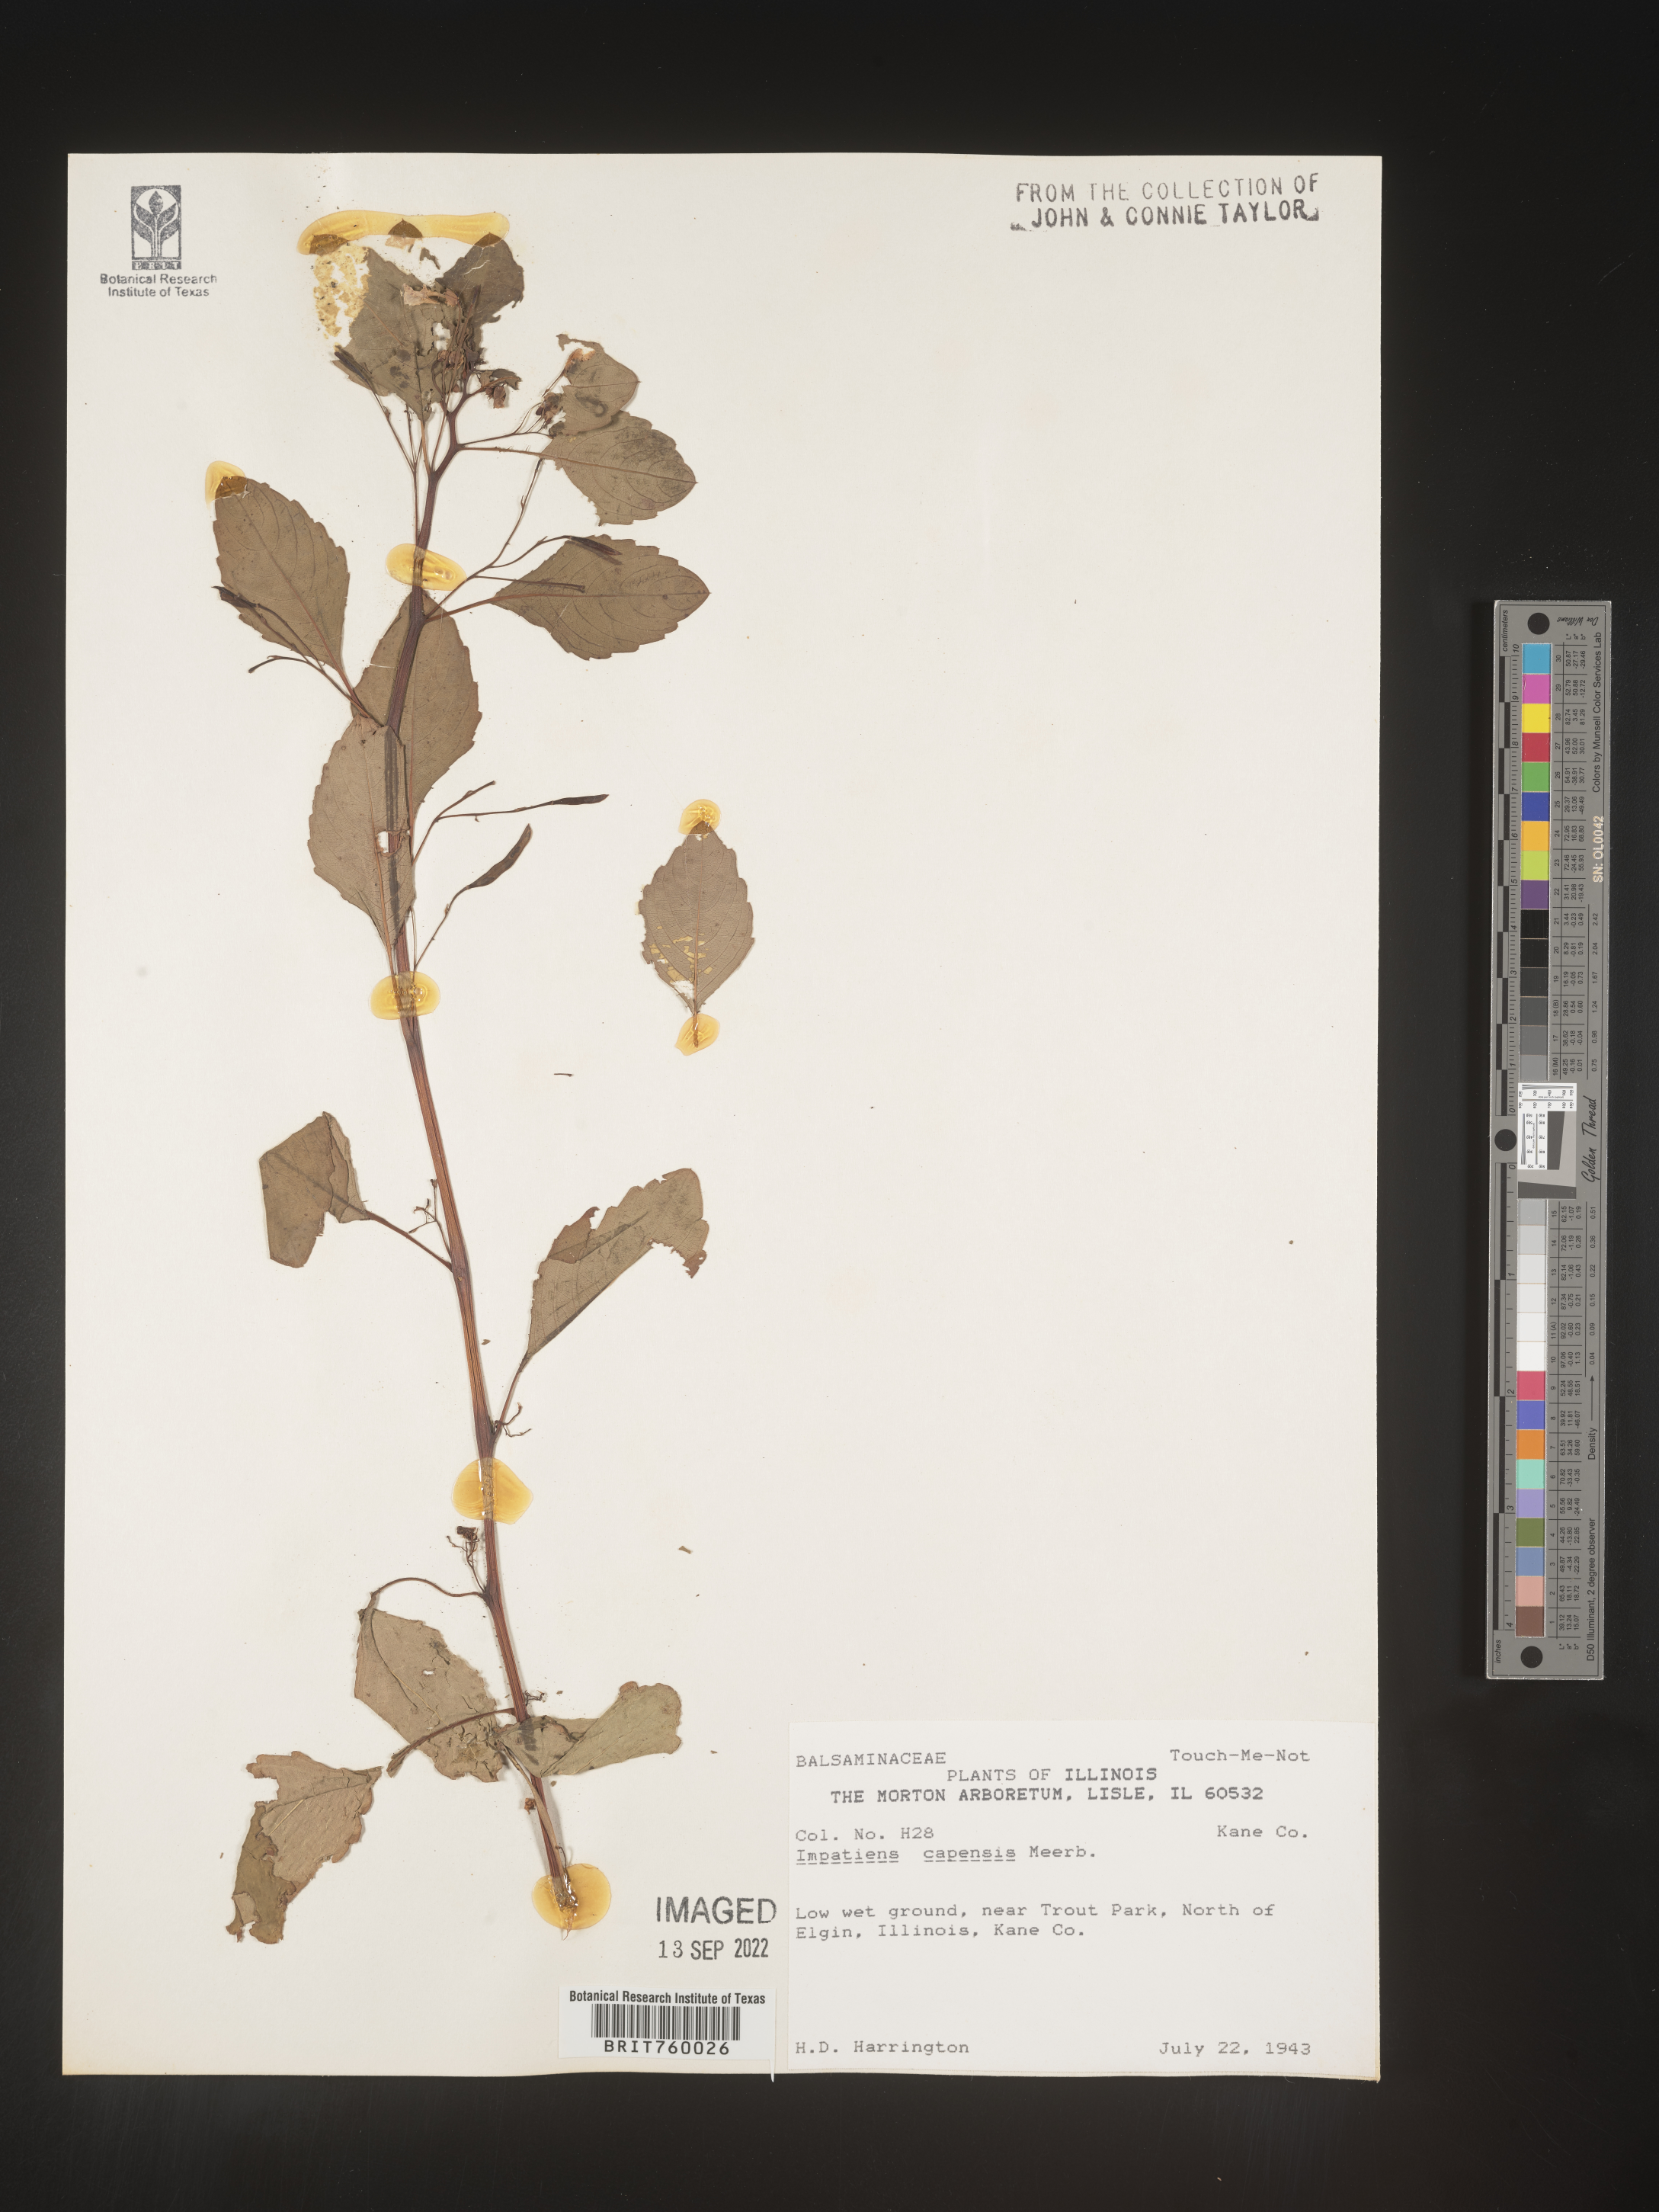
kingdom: Plantae
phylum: Tracheophyta
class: Magnoliopsida
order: Ericales
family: Balsaminaceae
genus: Impatiens
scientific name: Impatiens capensis
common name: Orange balsam
